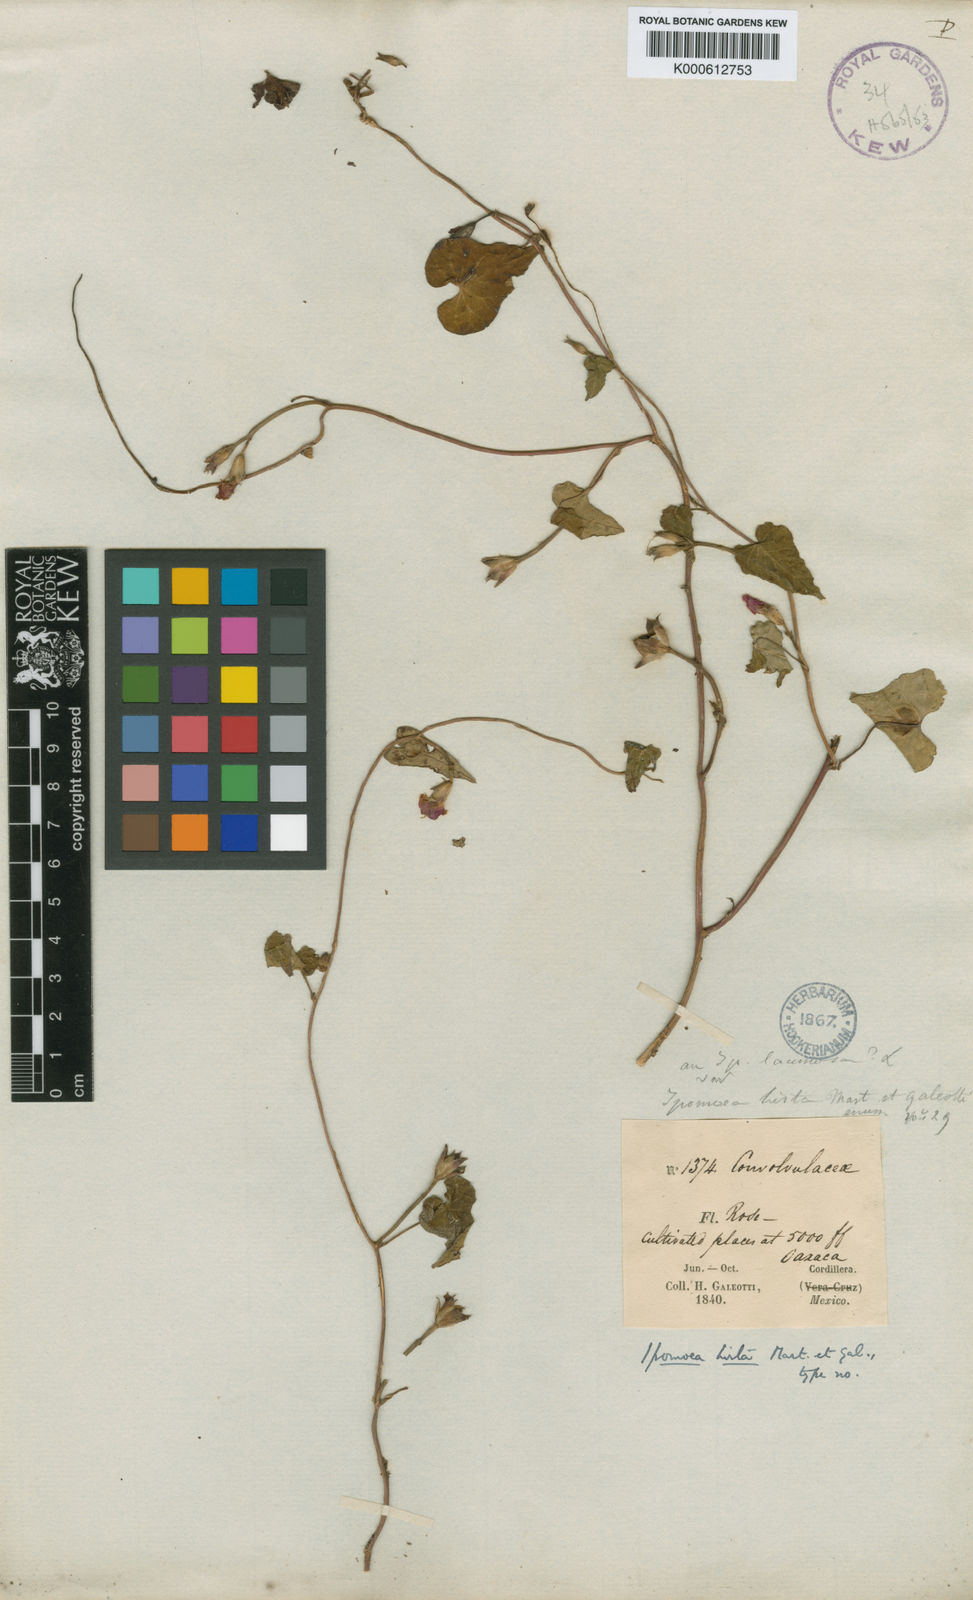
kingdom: Plantae
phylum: Tracheophyta
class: Magnoliopsida
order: Solanales
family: Convolvulaceae
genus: Ipomoea
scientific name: Ipomoea triloba
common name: Little-bell
